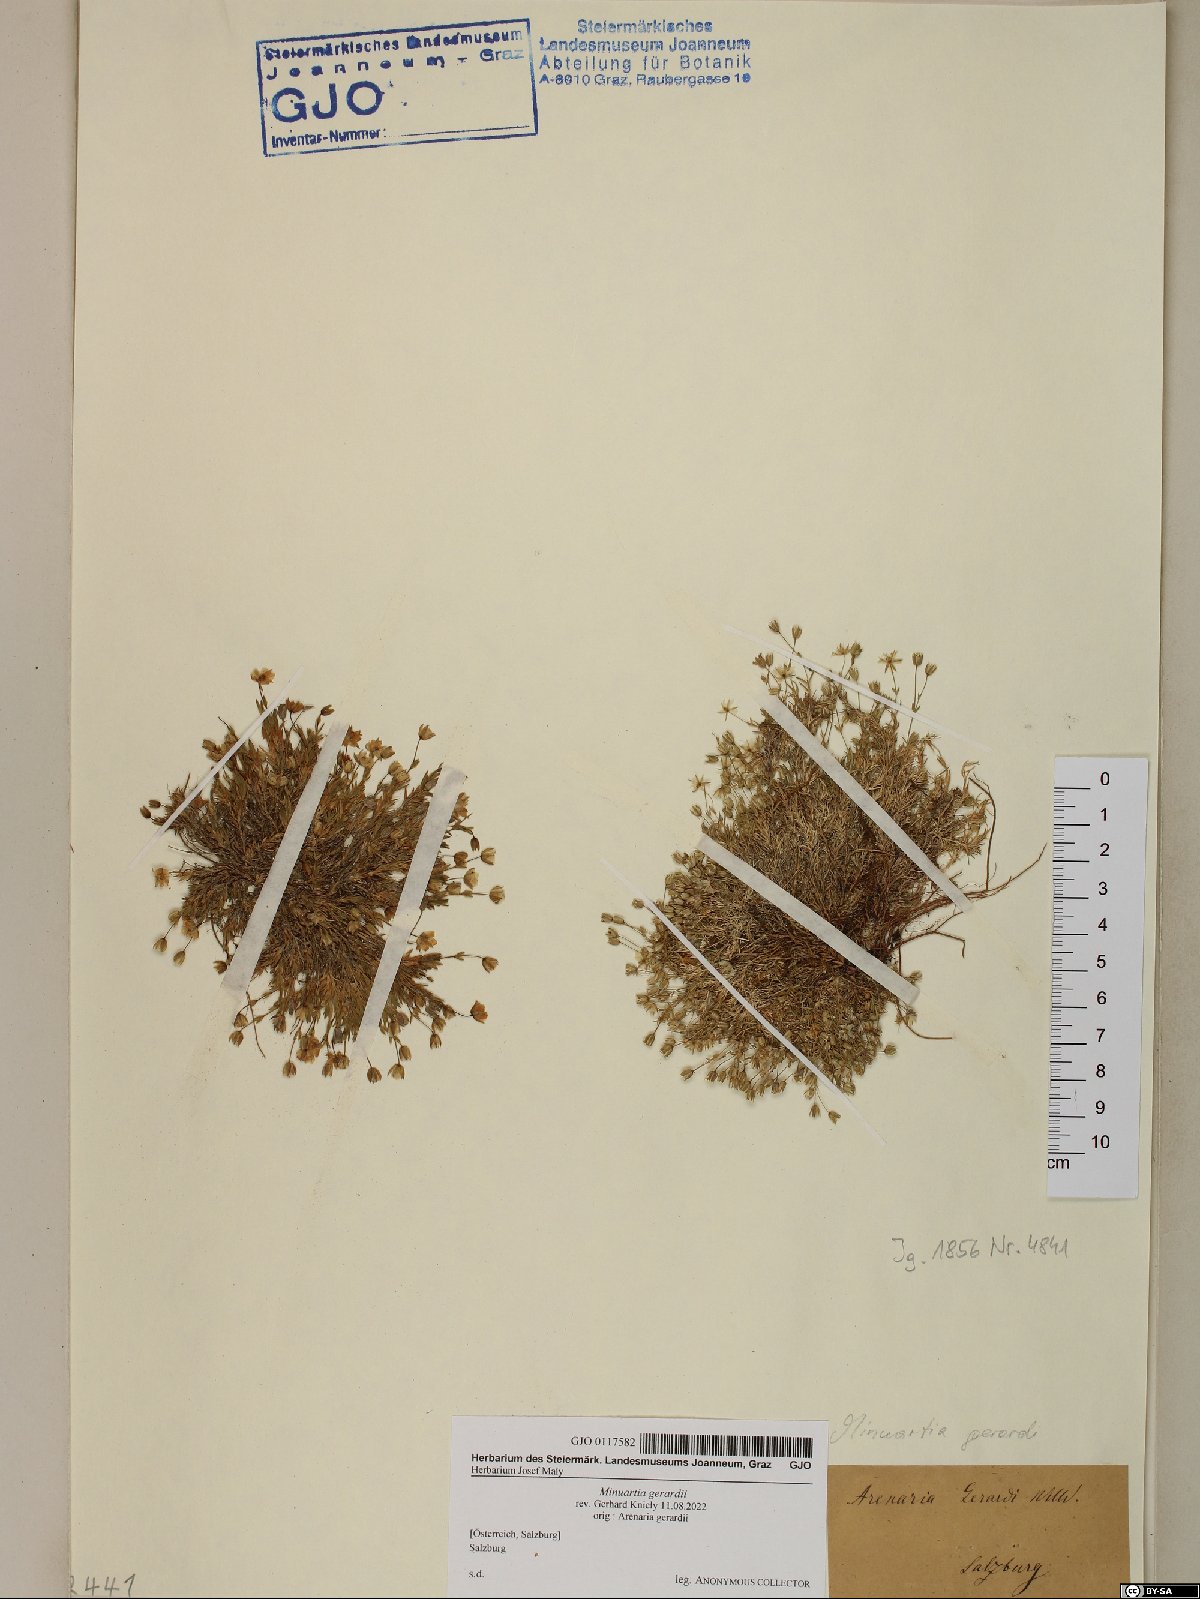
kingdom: Plantae
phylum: Tracheophyta
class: Magnoliopsida
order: Caryophyllales
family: Caryophyllaceae
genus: Sabulina
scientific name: Sabulina verna
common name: Spring sandwort
